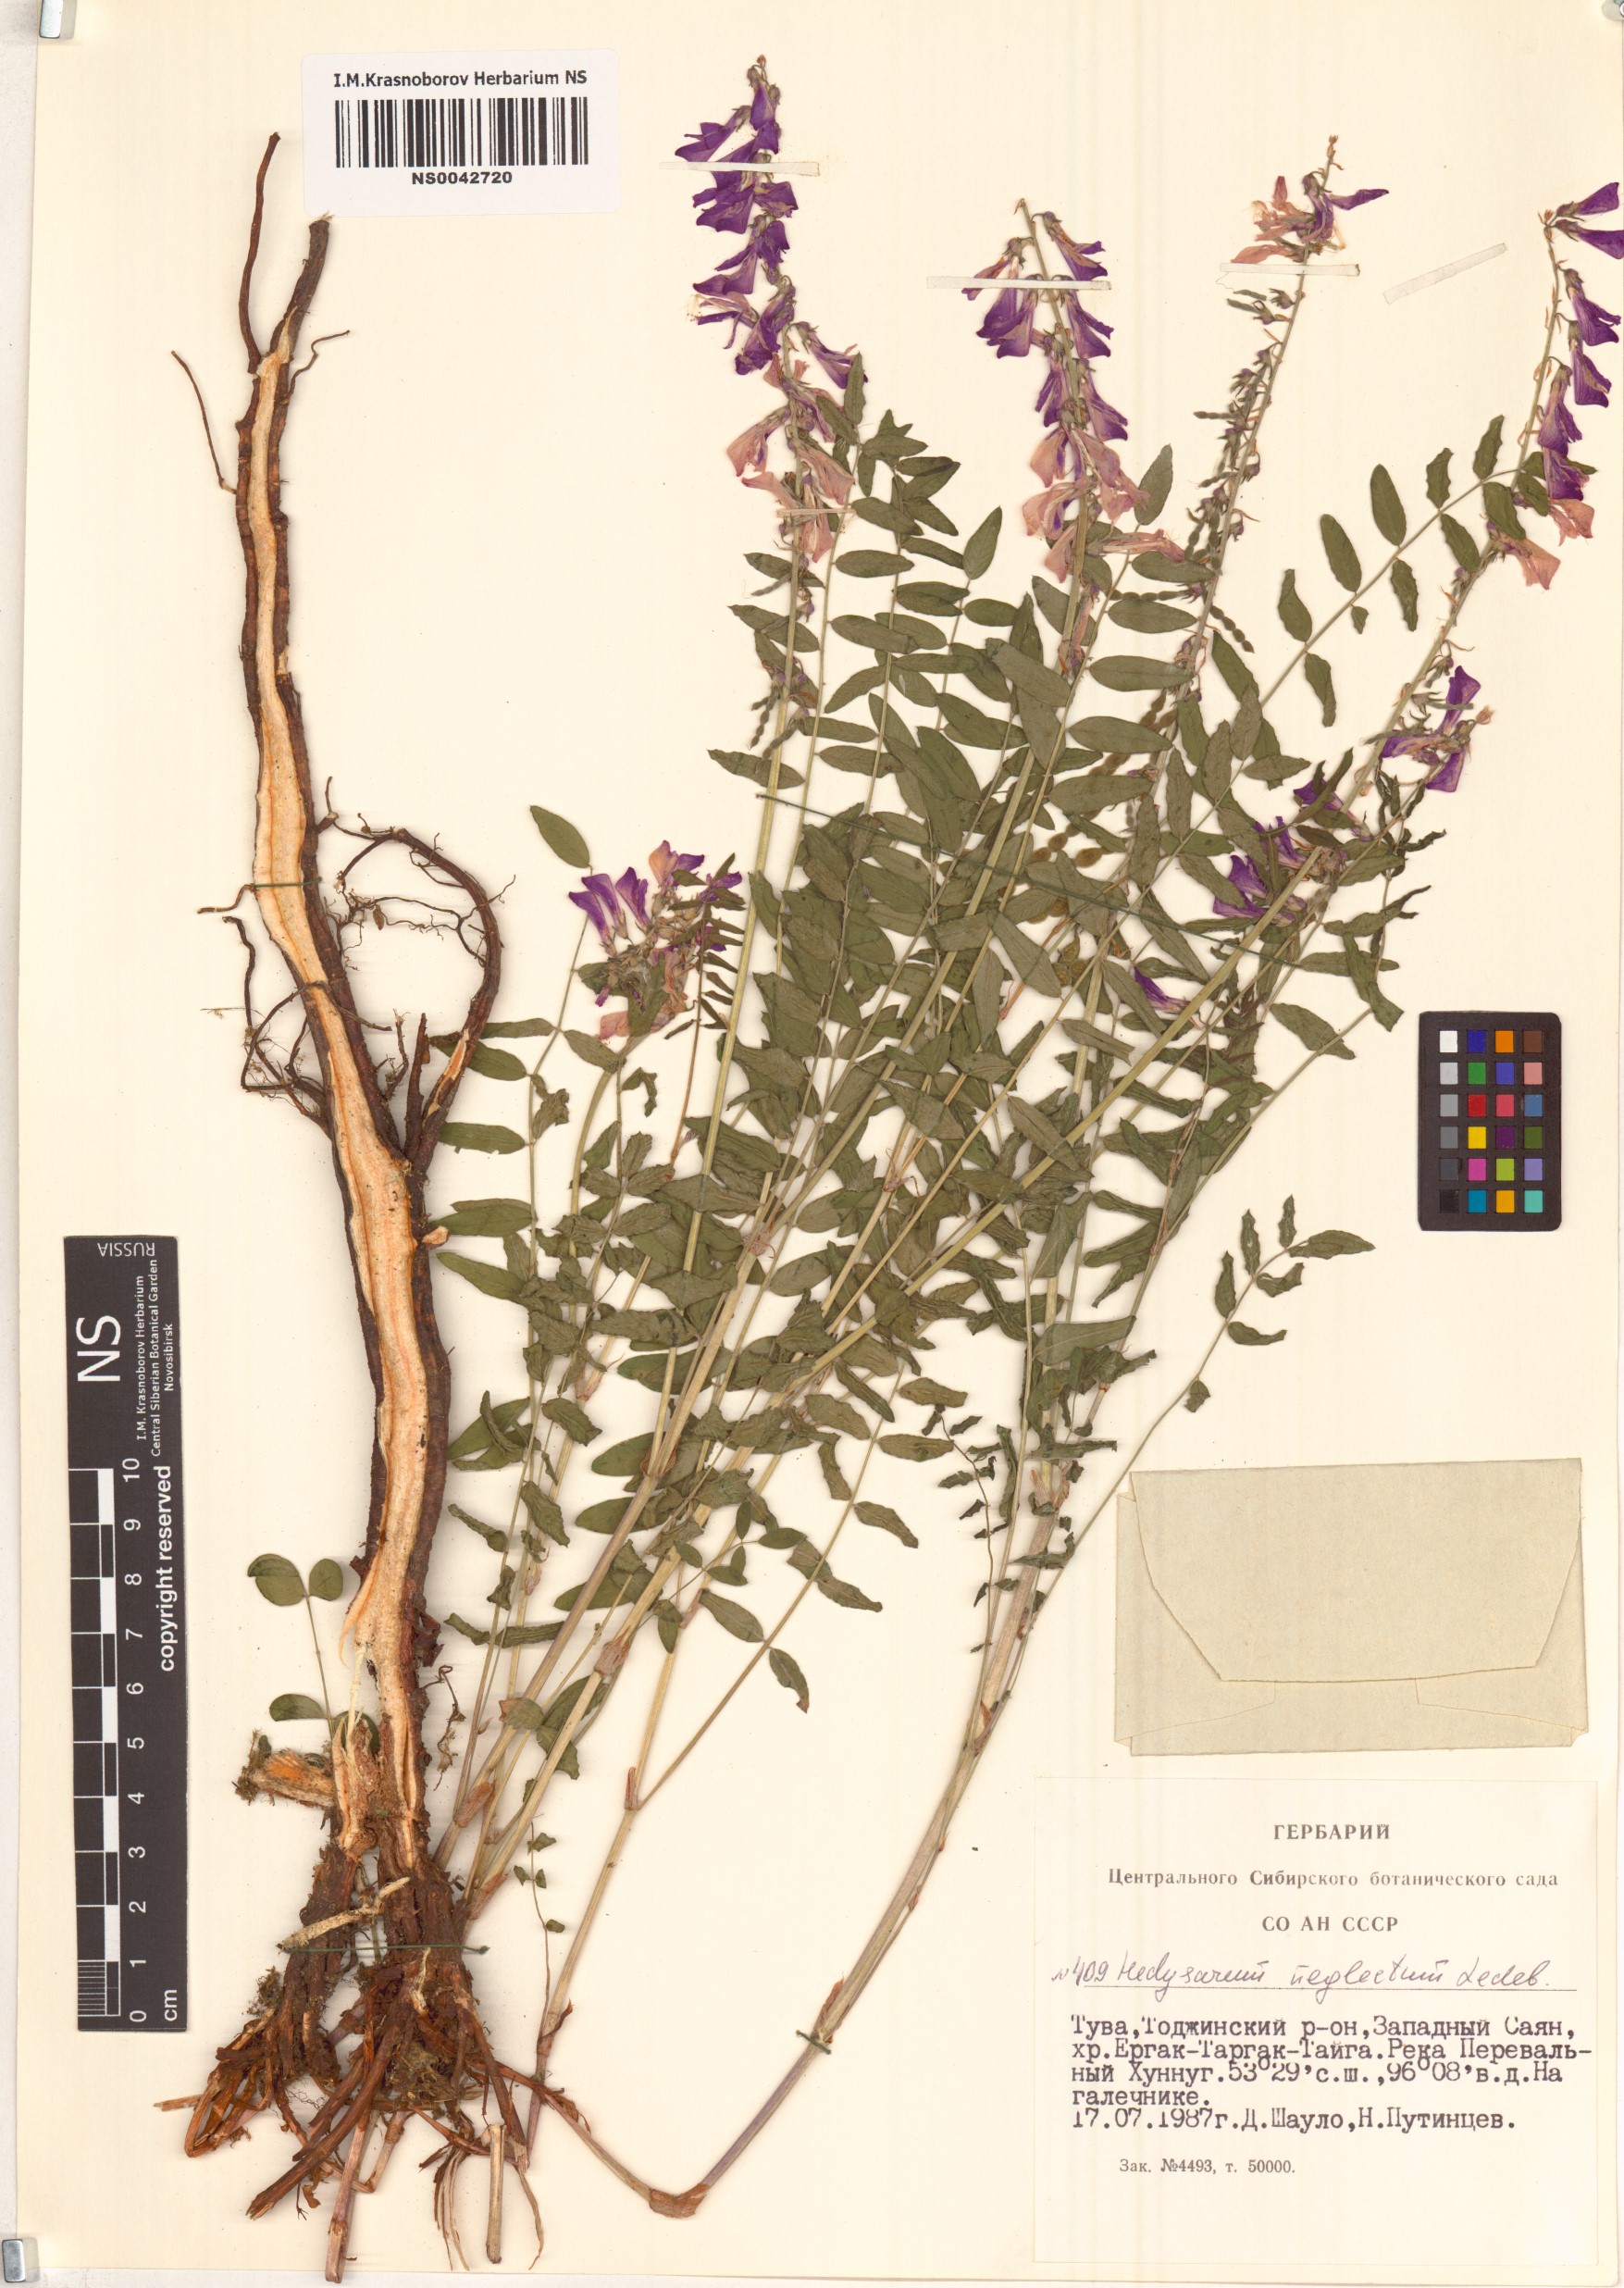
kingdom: Plantae
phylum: Tracheophyta
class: Magnoliopsida
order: Fabales
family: Fabaceae
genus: Hedysarum
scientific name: Hedysarum neglectum
